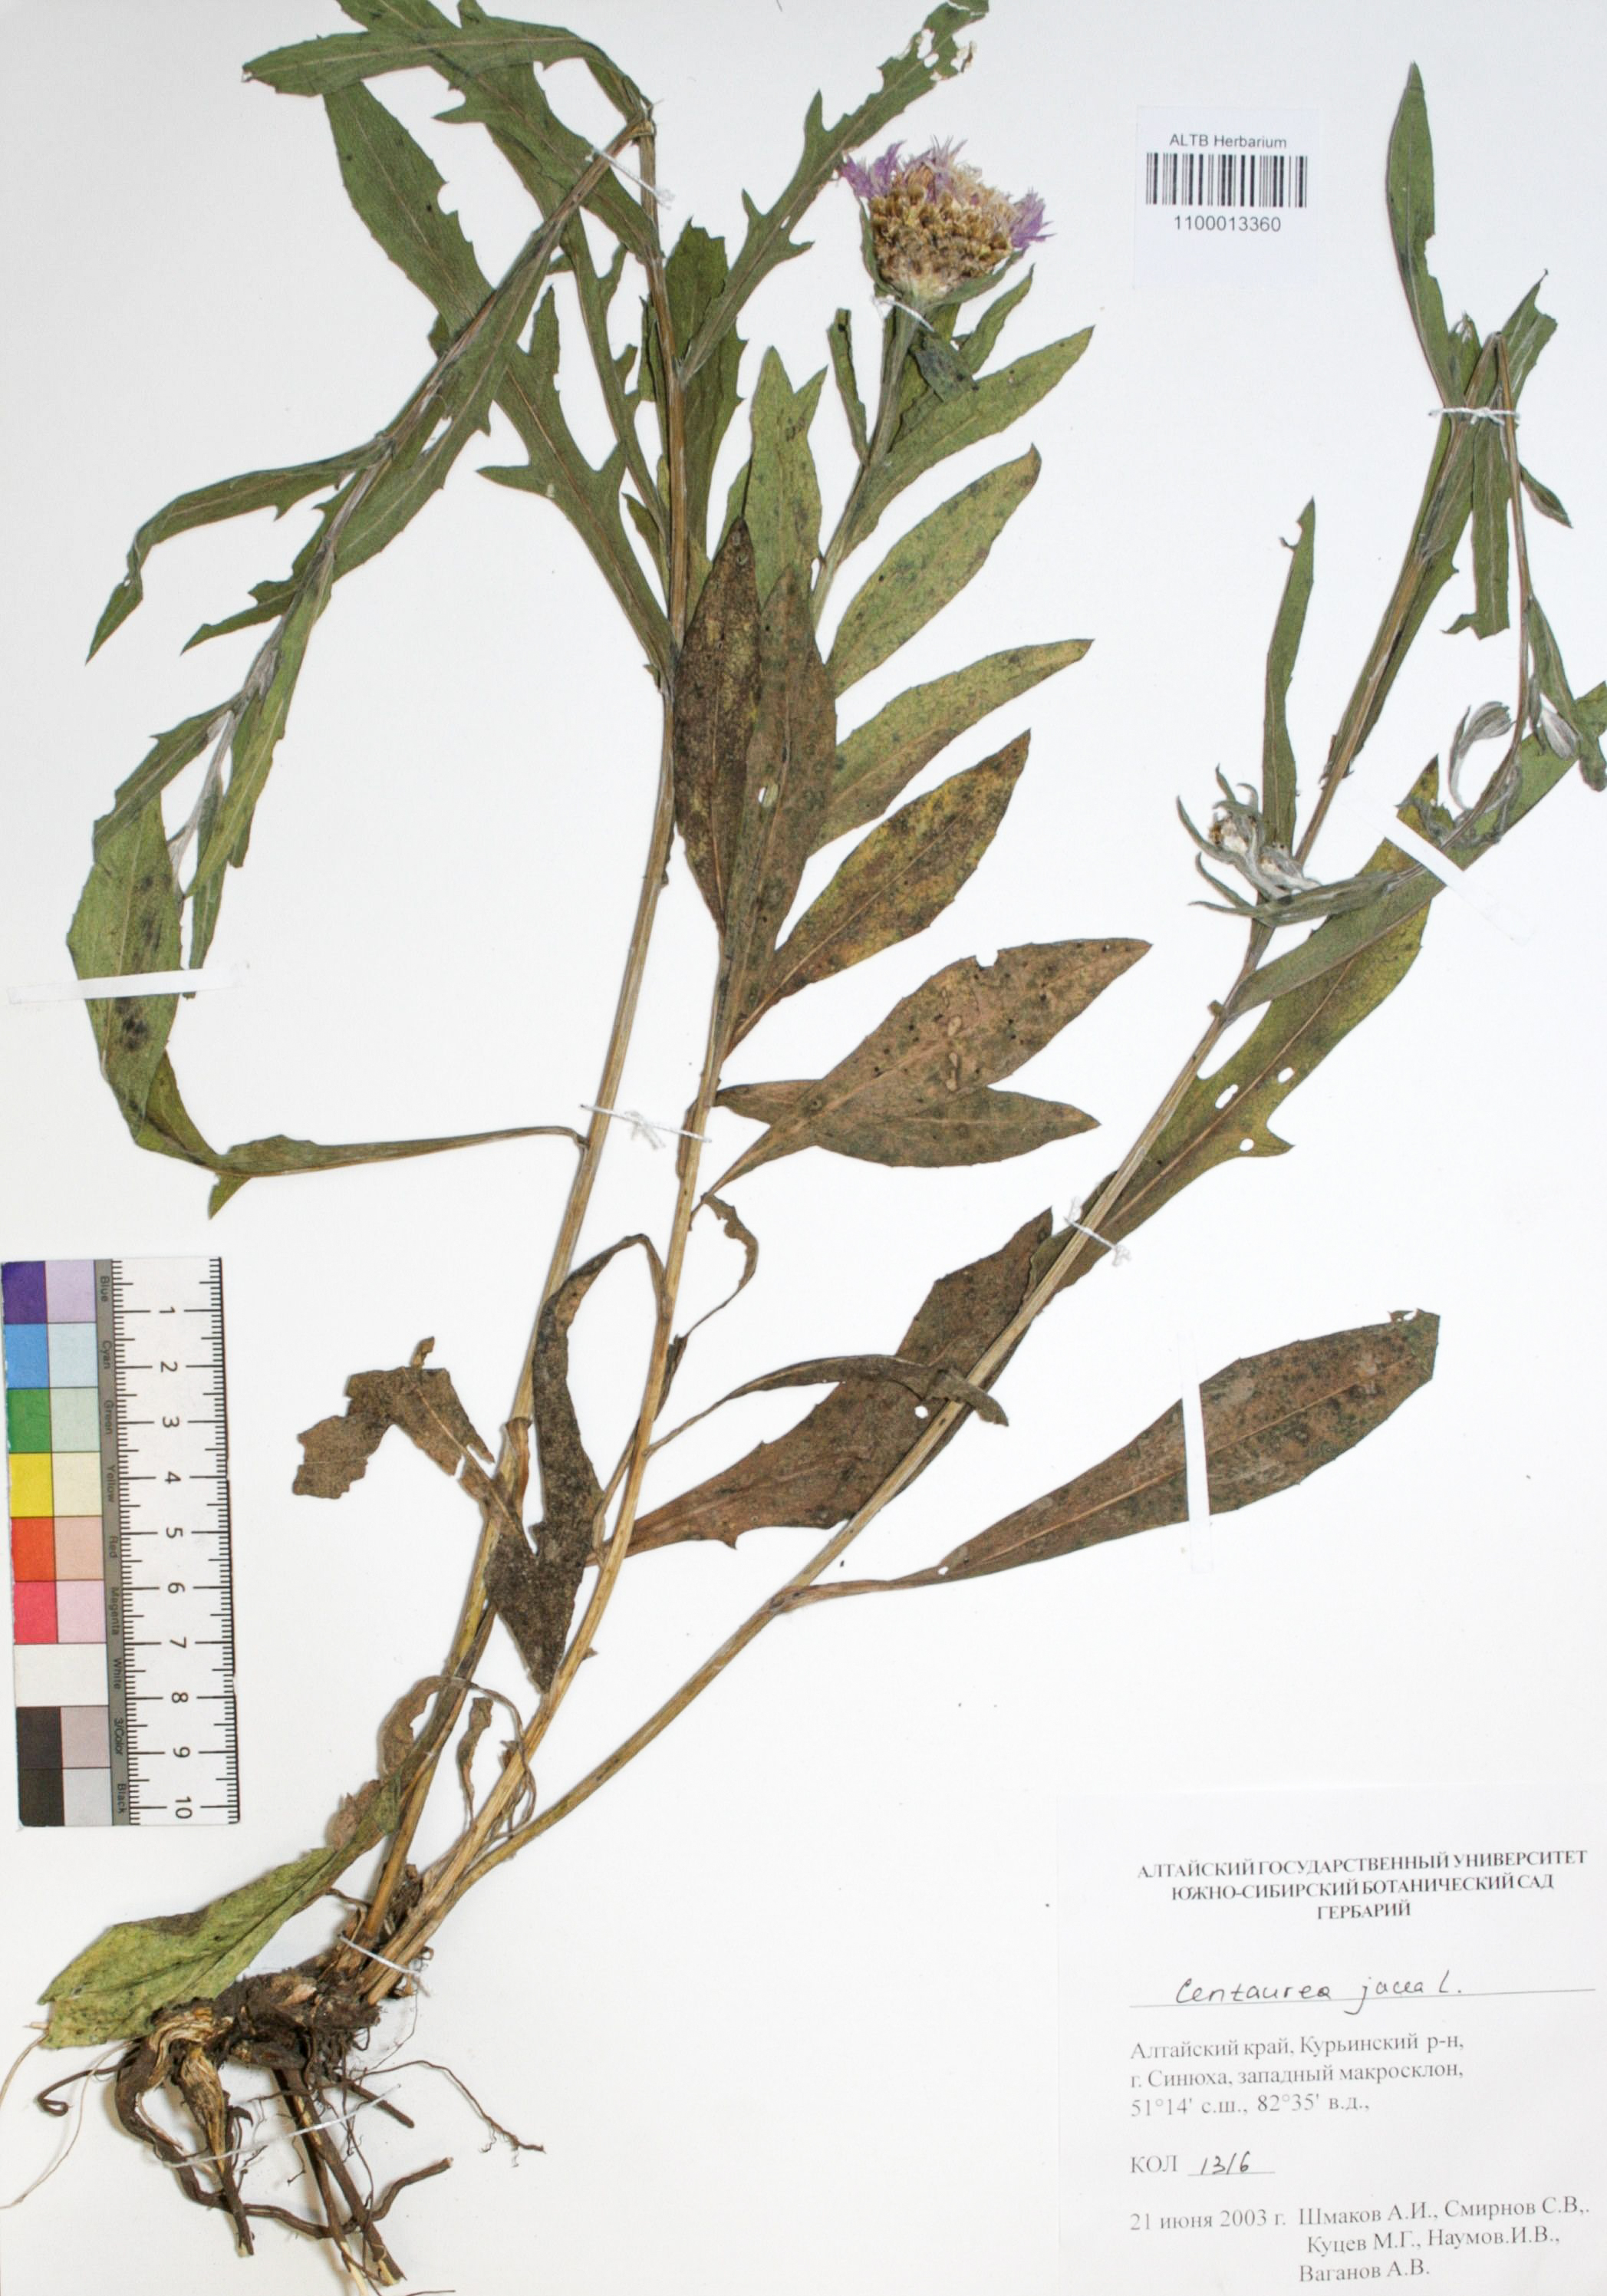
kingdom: Plantae
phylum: Tracheophyta
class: Magnoliopsida
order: Asterales
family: Asteraceae
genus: Centaurea
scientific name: Centaurea jacea
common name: Brown knapweed
